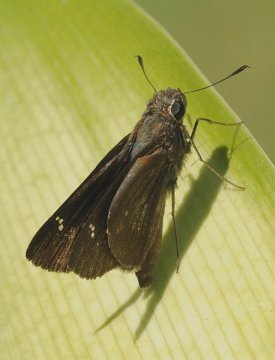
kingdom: Animalia
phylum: Arthropoda
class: Insecta
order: Lepidoptera
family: Hesperiidae
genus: Baoris
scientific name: Baoris fatuellus
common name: Long-horned Swift
